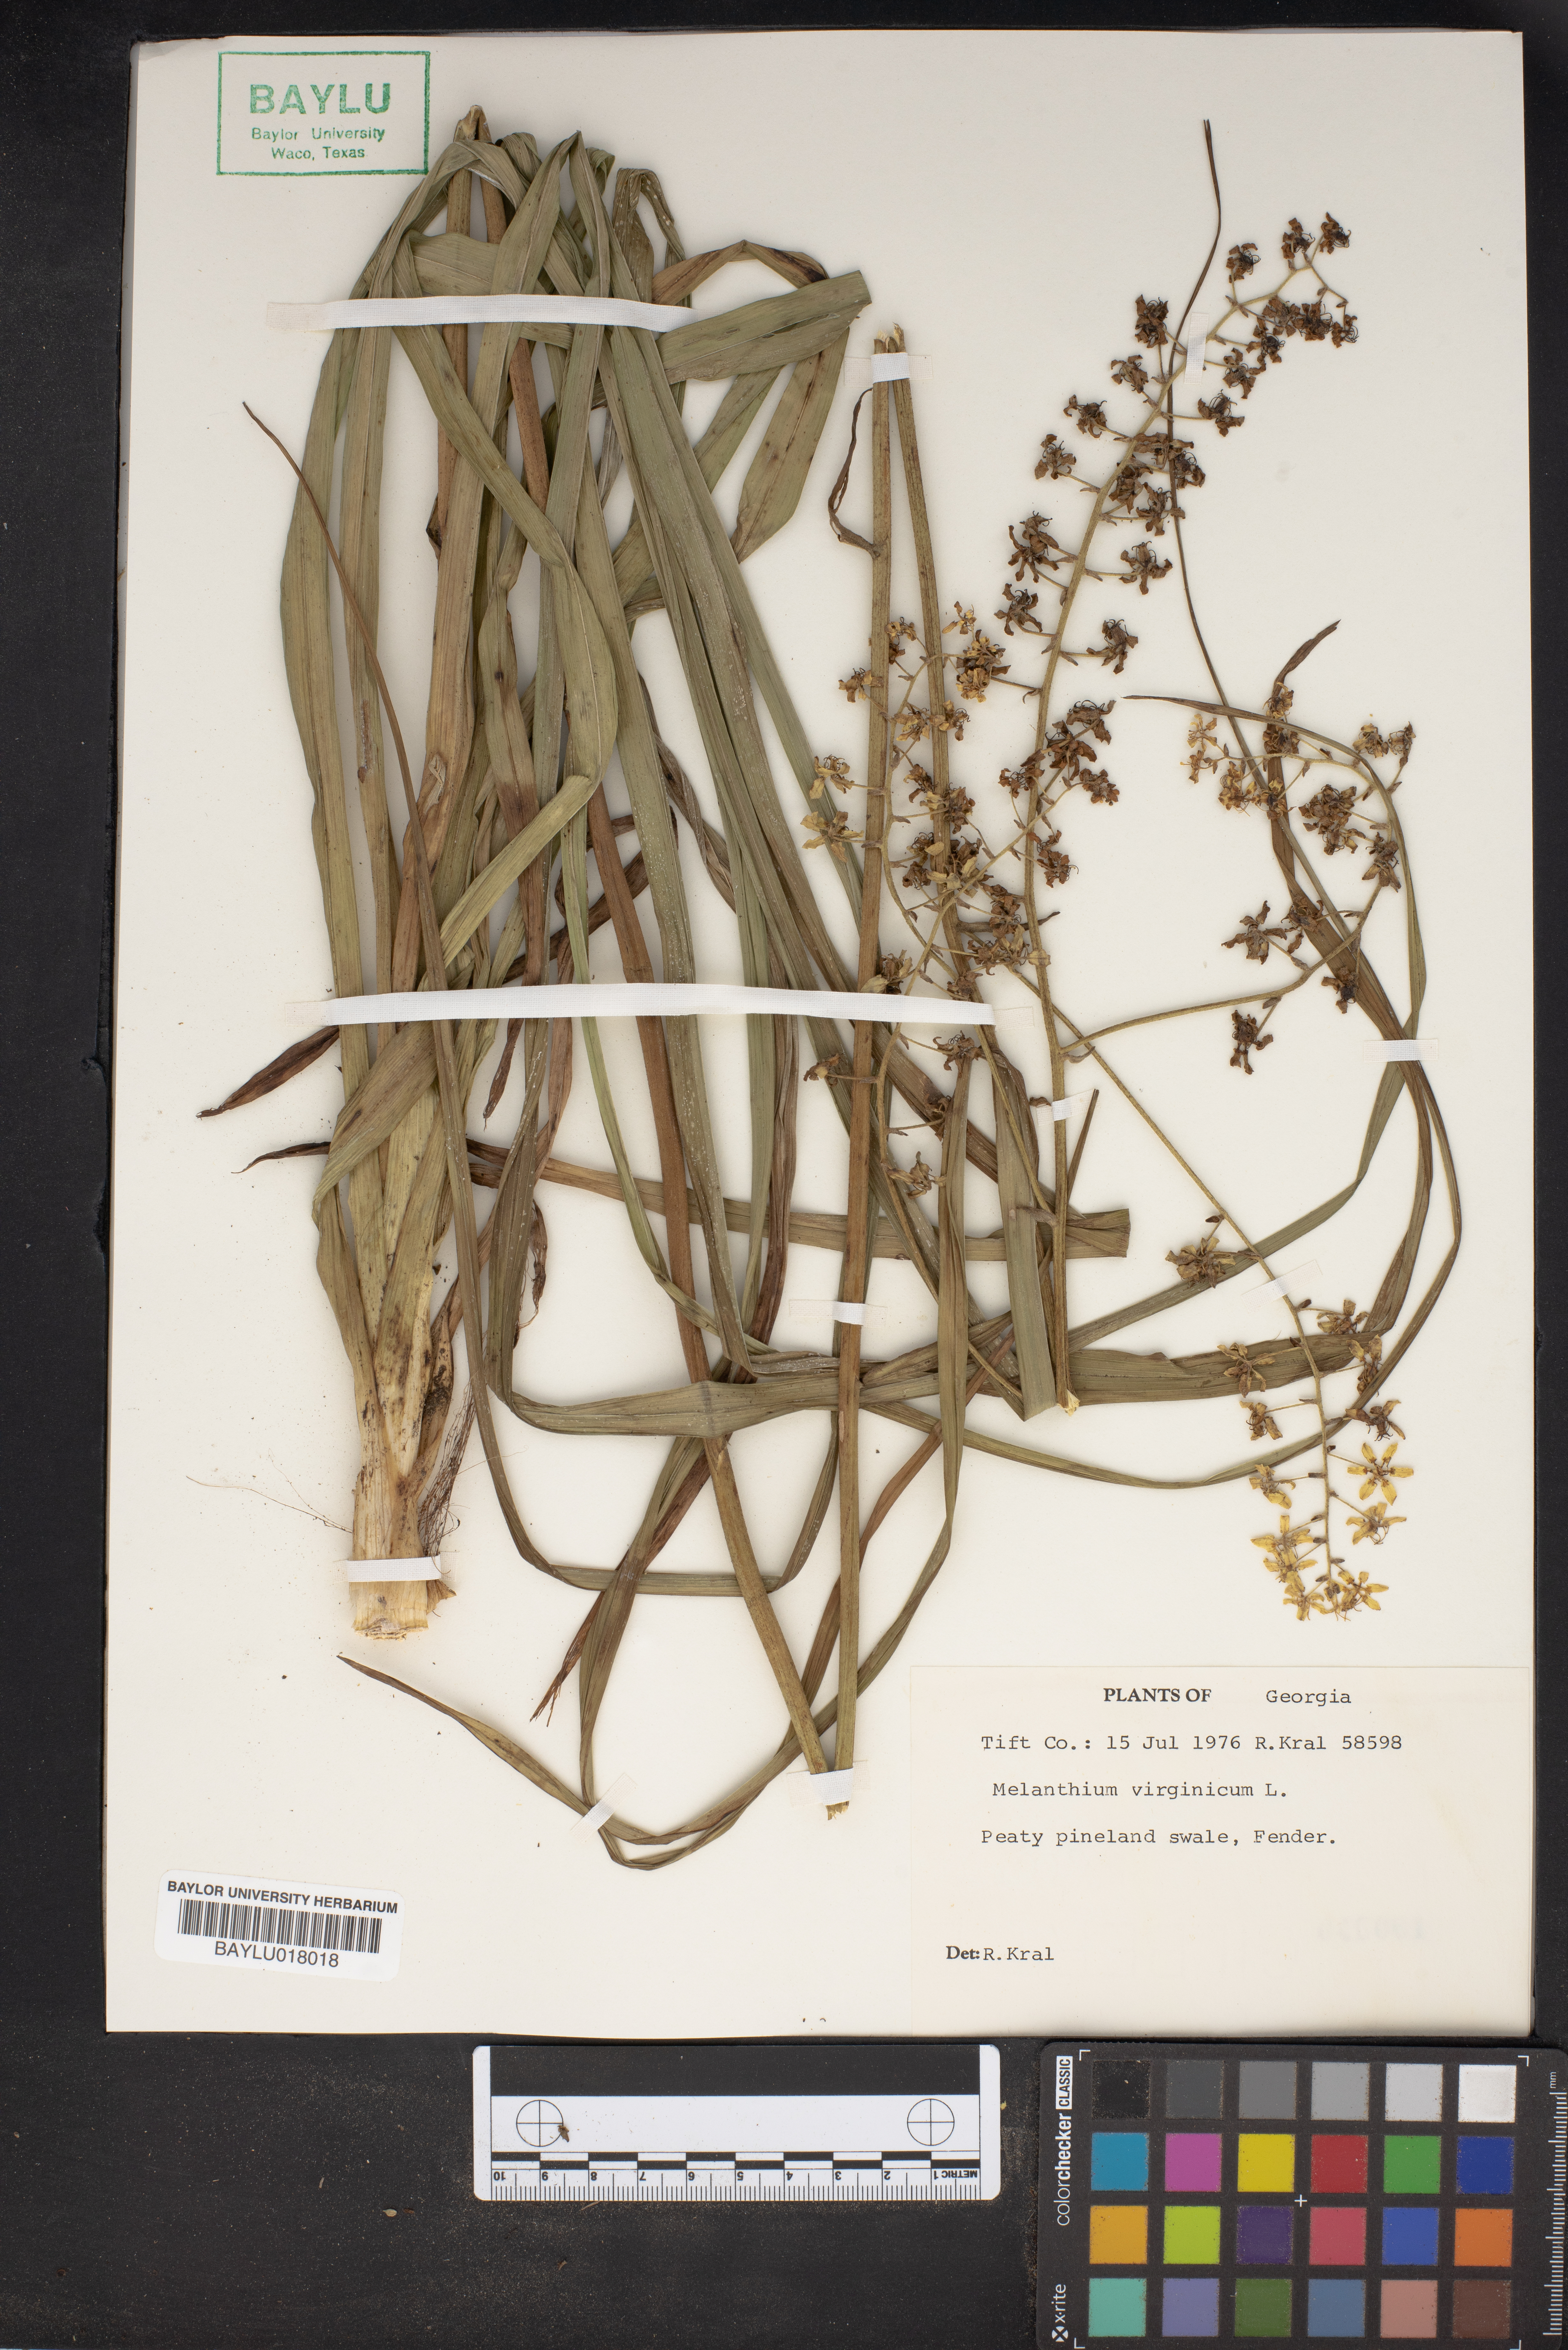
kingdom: Plantae
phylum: Tracheophyta
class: Liliopsida
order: Liliales
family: Melanthiaceae
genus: Melanthium
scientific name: Melanthium virginicum
